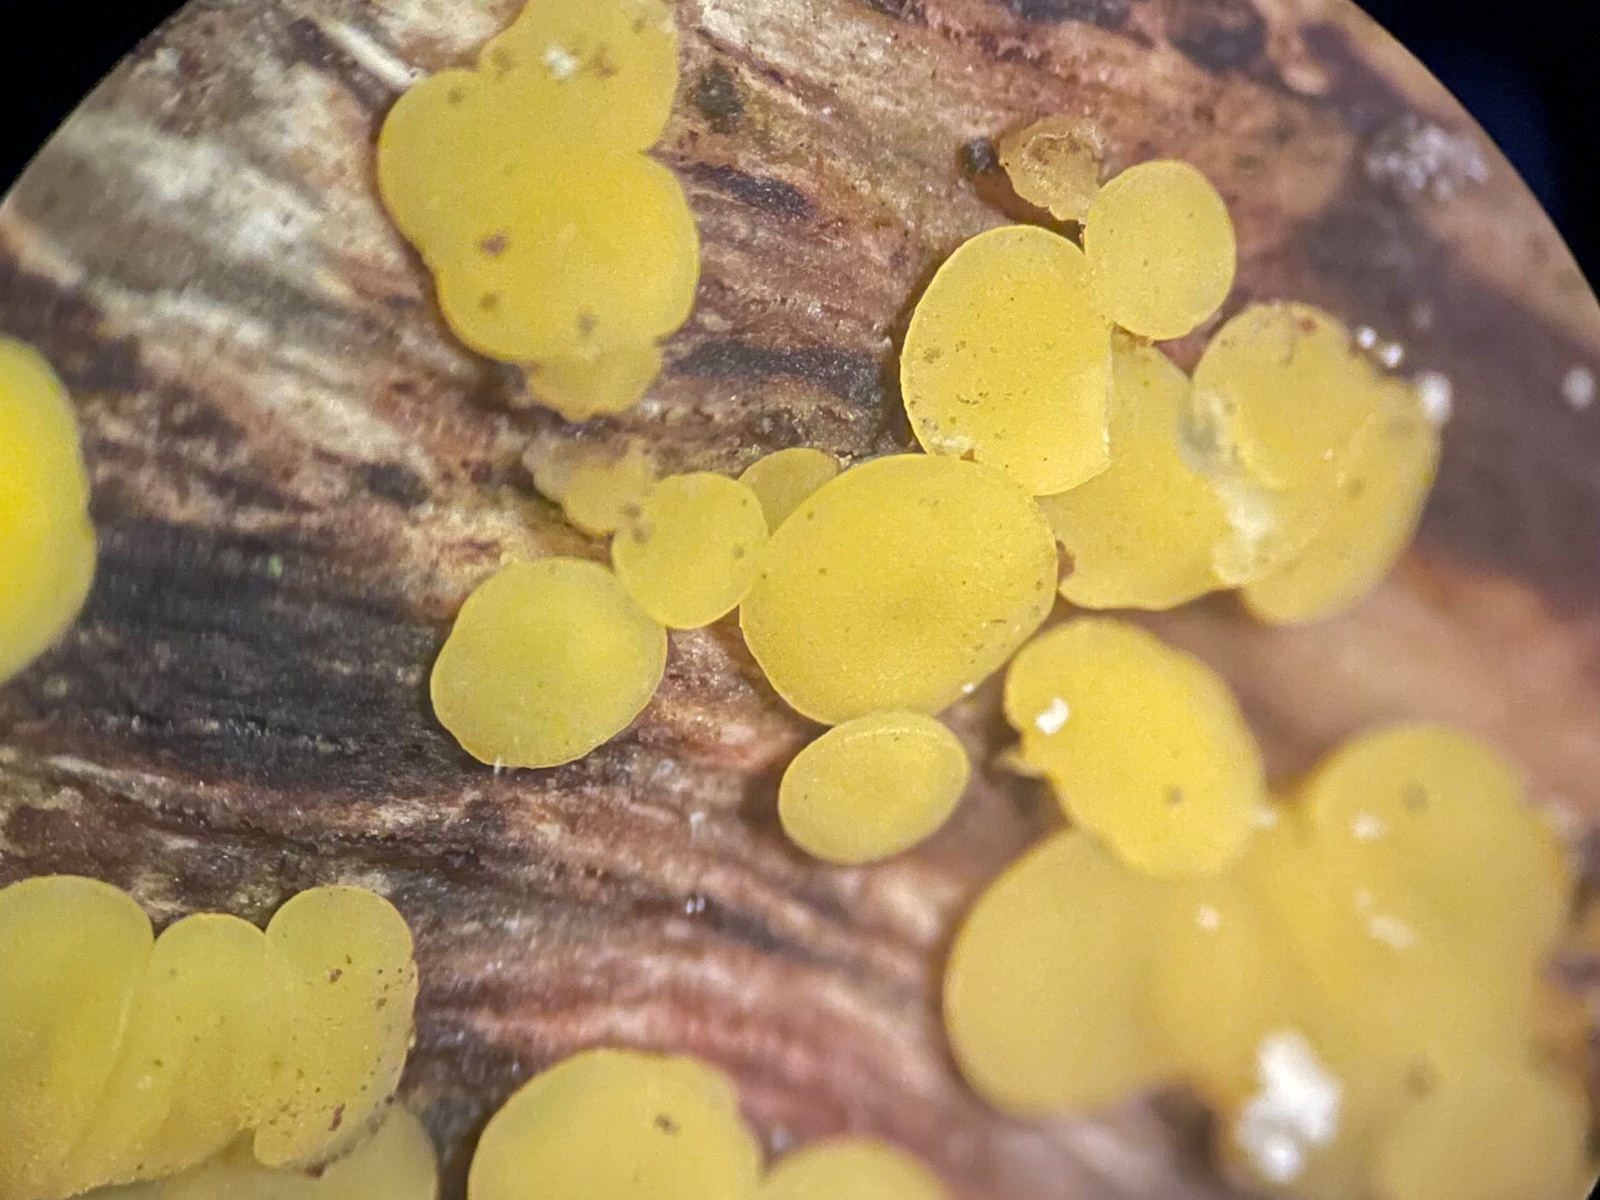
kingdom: Fungi
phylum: Ascomycota
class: Leotiomycetes
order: Helotiales
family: Pezizellaceae
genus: Calycina
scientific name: Calycina citrina
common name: almindelig gulskive
